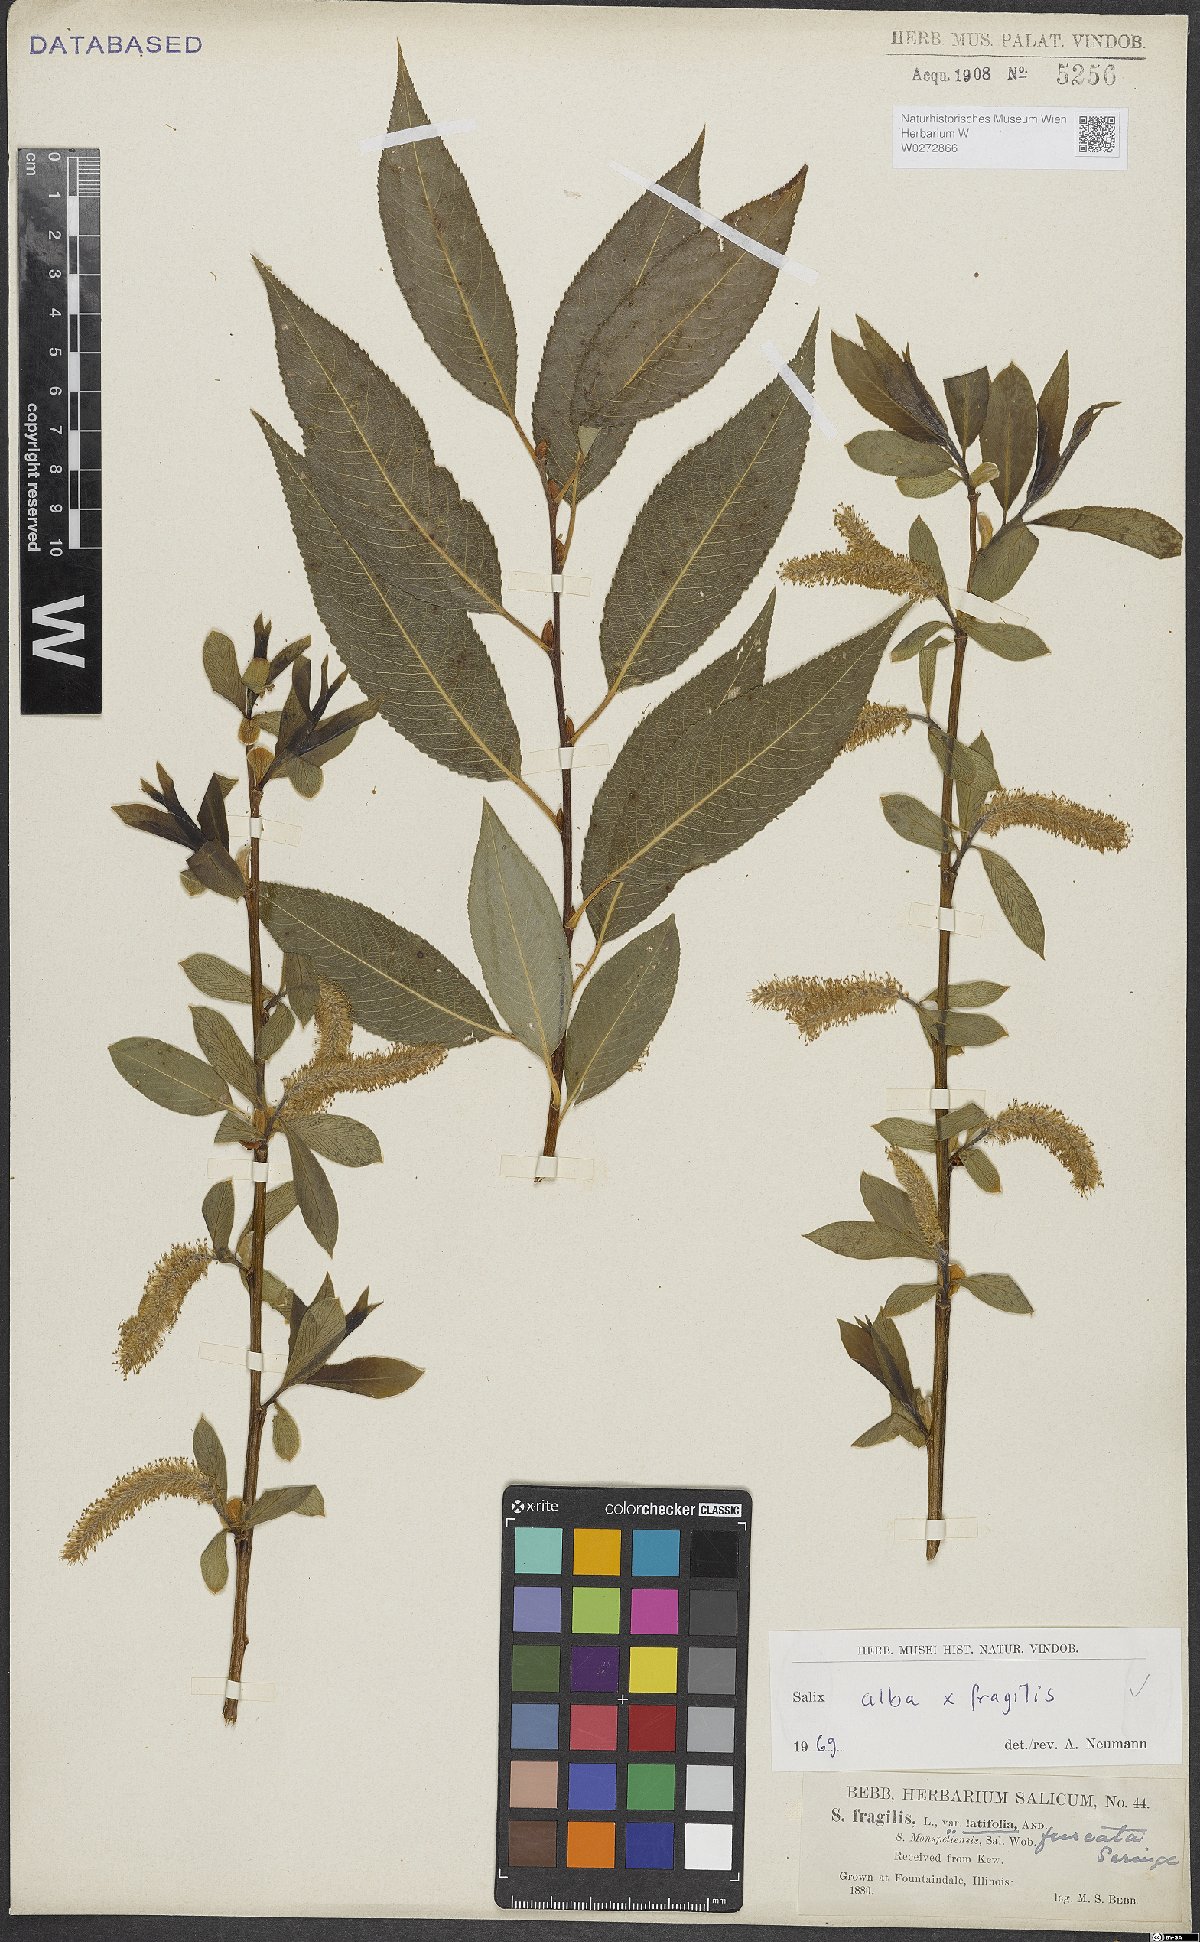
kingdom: Plantae
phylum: Tracheophyta
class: Magnoliopsida
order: Malpighiales
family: Salicaceae
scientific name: Salicaceae
